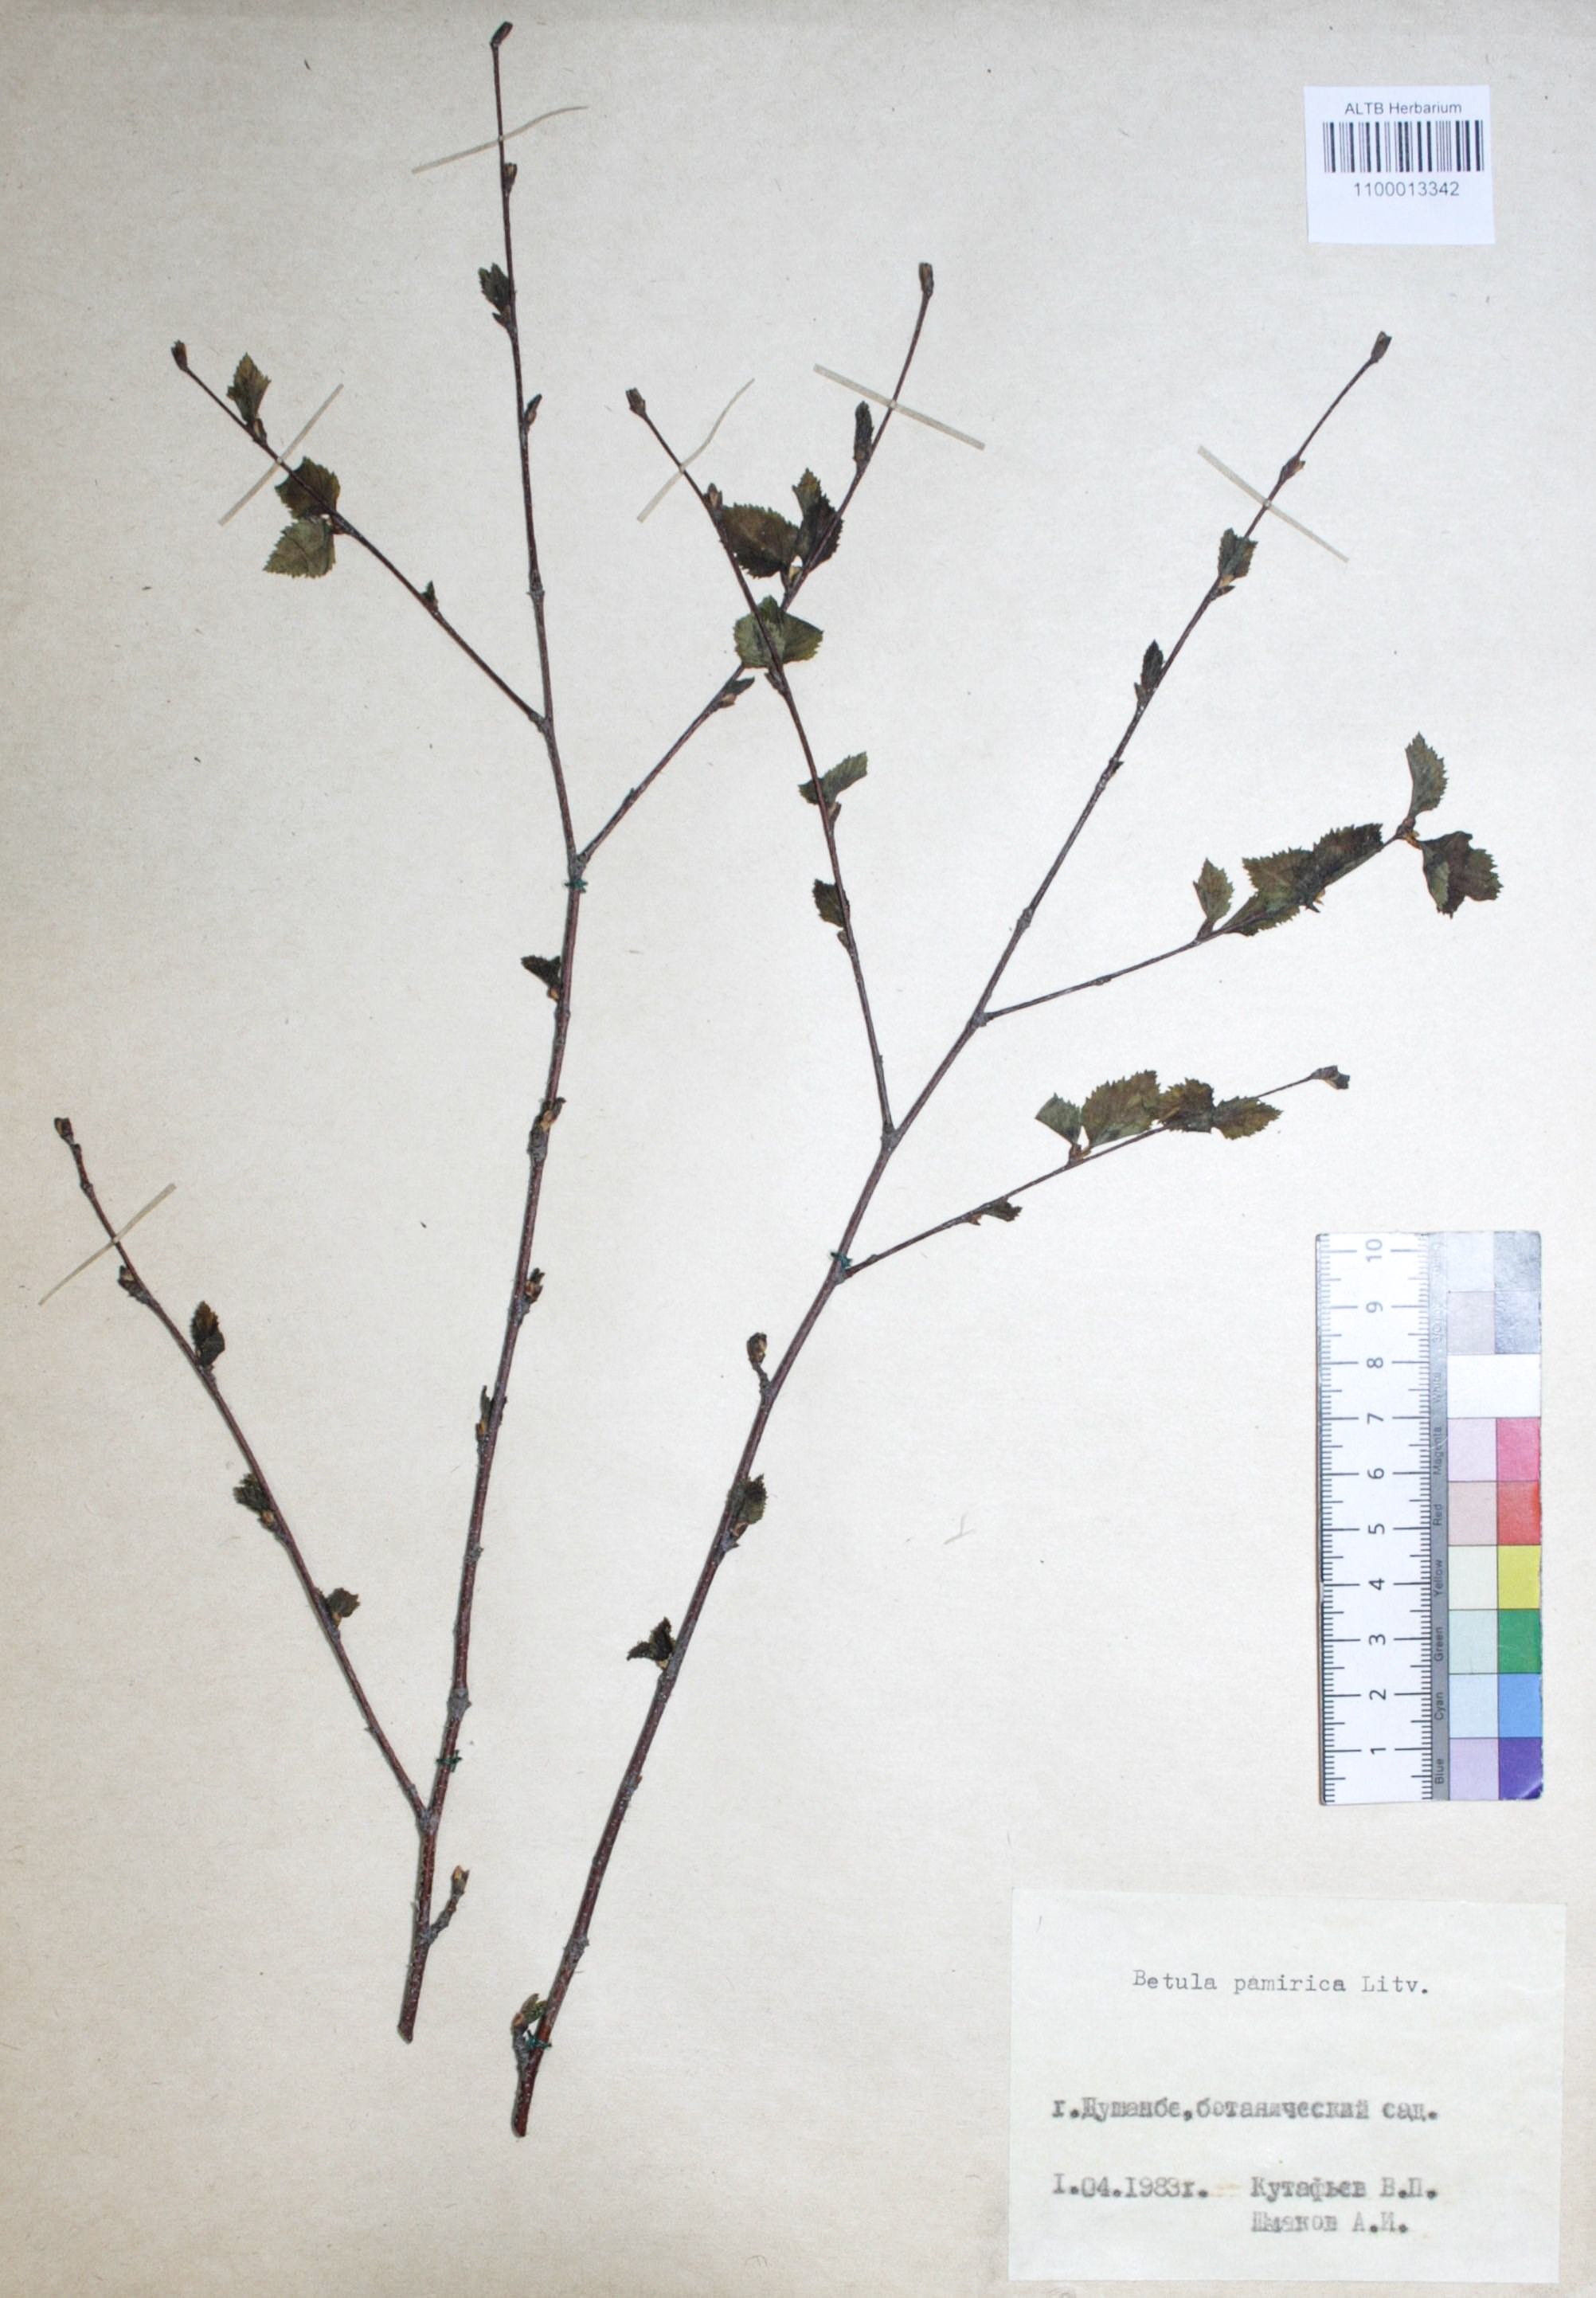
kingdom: Plantae
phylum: Tracheophyta
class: Magnoliopsida
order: Fagales
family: Betulaceae
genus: Betula
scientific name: Betula tianschanica
